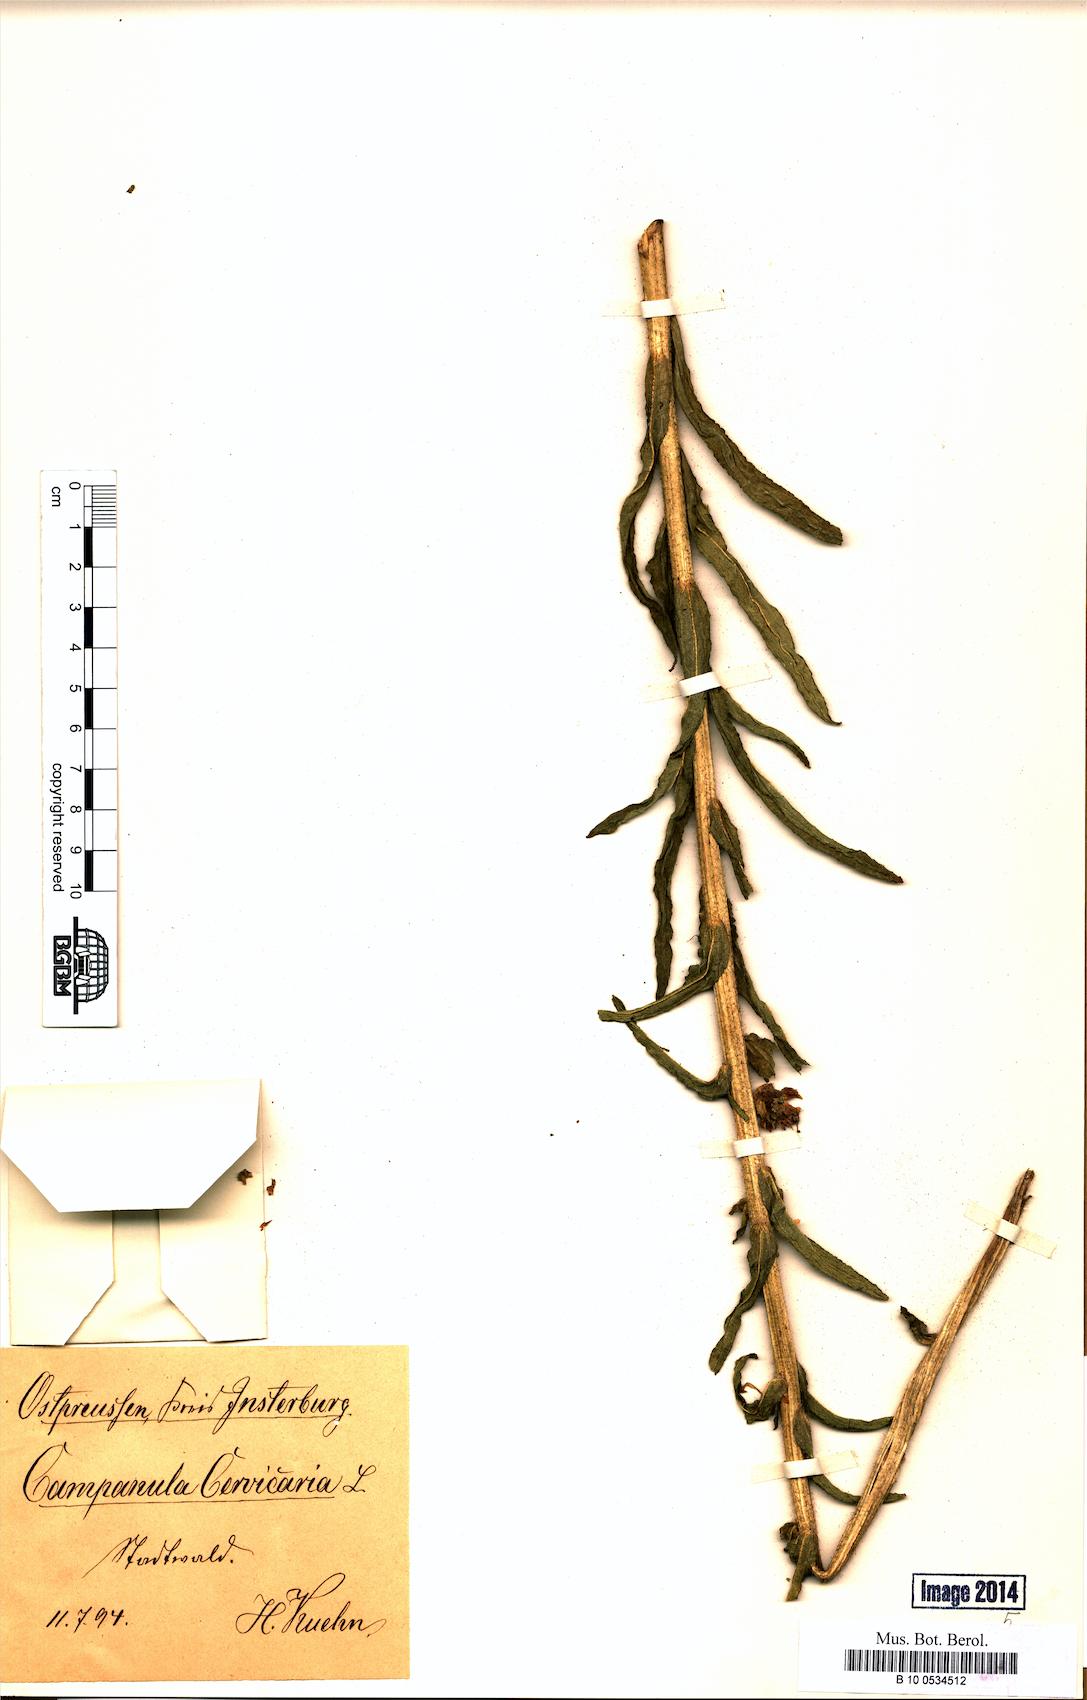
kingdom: Plantae
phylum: Tracheophyta
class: Magnoliopsida
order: Asterales
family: Campanulaceae
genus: Campanula
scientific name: Campanula cervicaria
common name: Bristly bellflower
